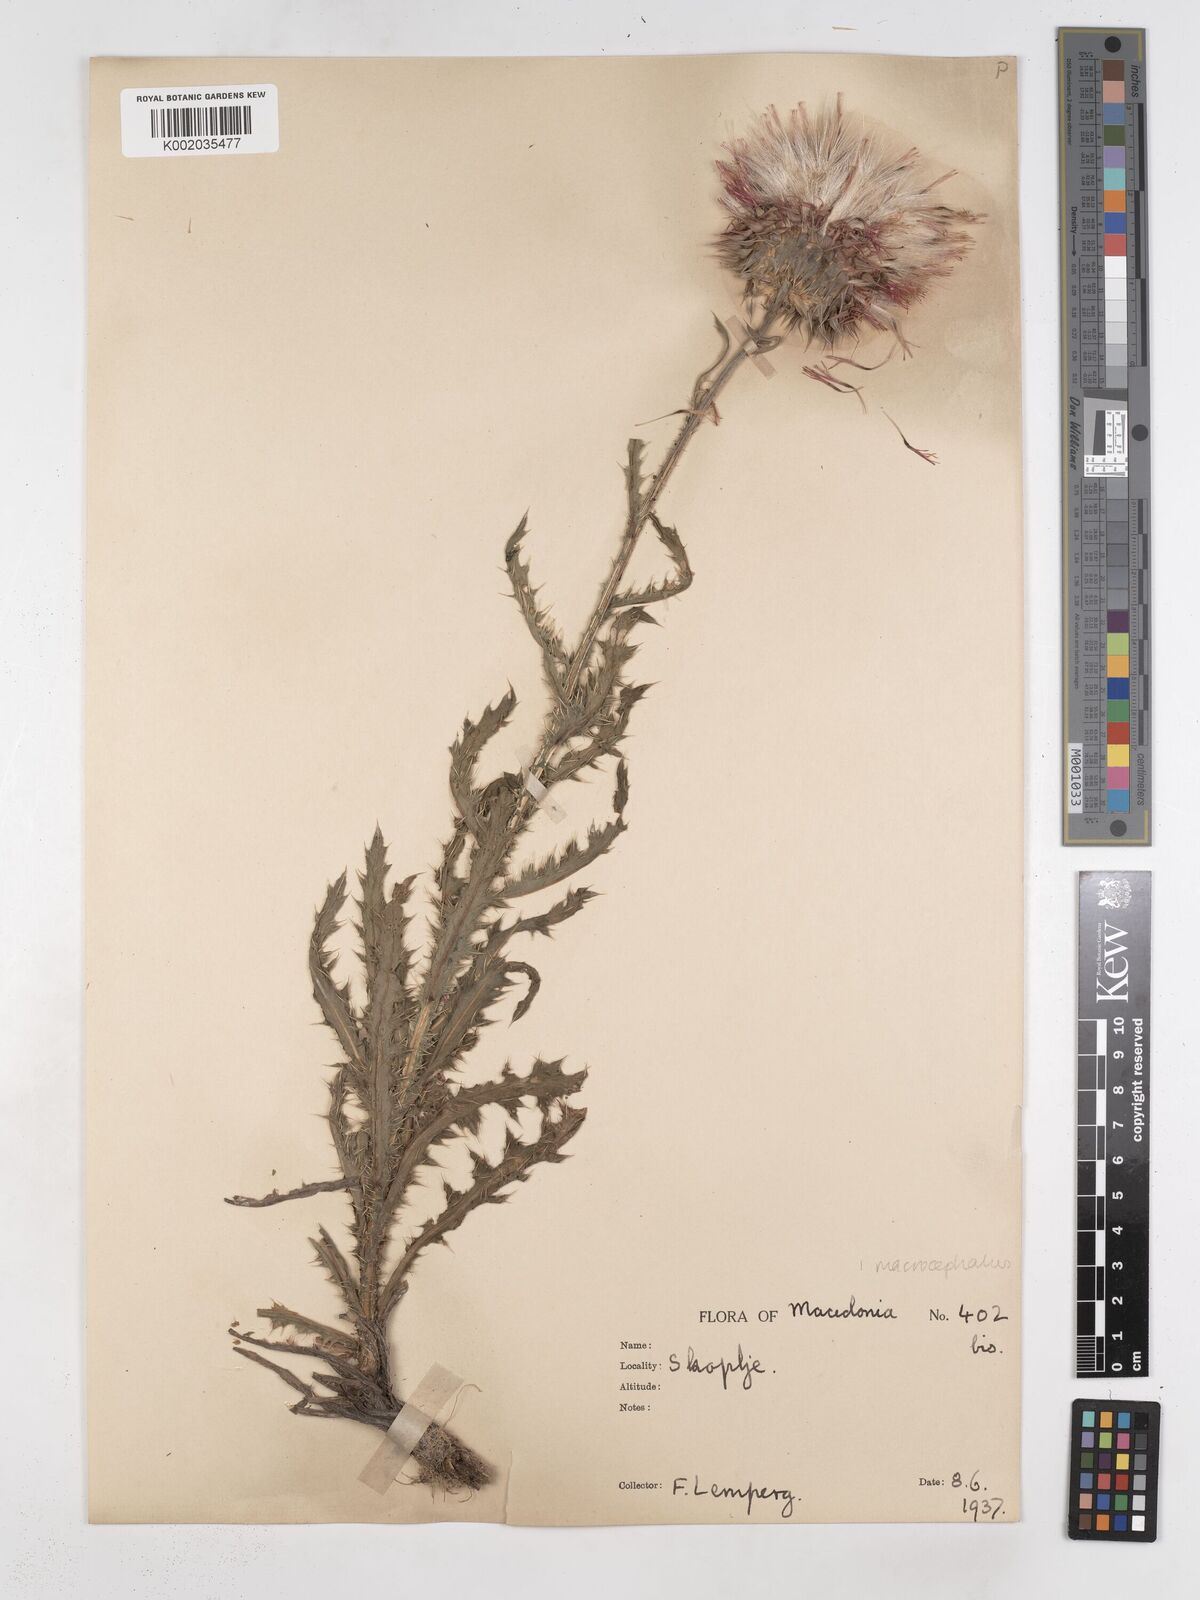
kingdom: Plantae
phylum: Tracheophyta
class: Magnoliopsida
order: Asterales
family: Asteraceae
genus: Carduus
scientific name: Carduus macrocephalus
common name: Giant thistle
